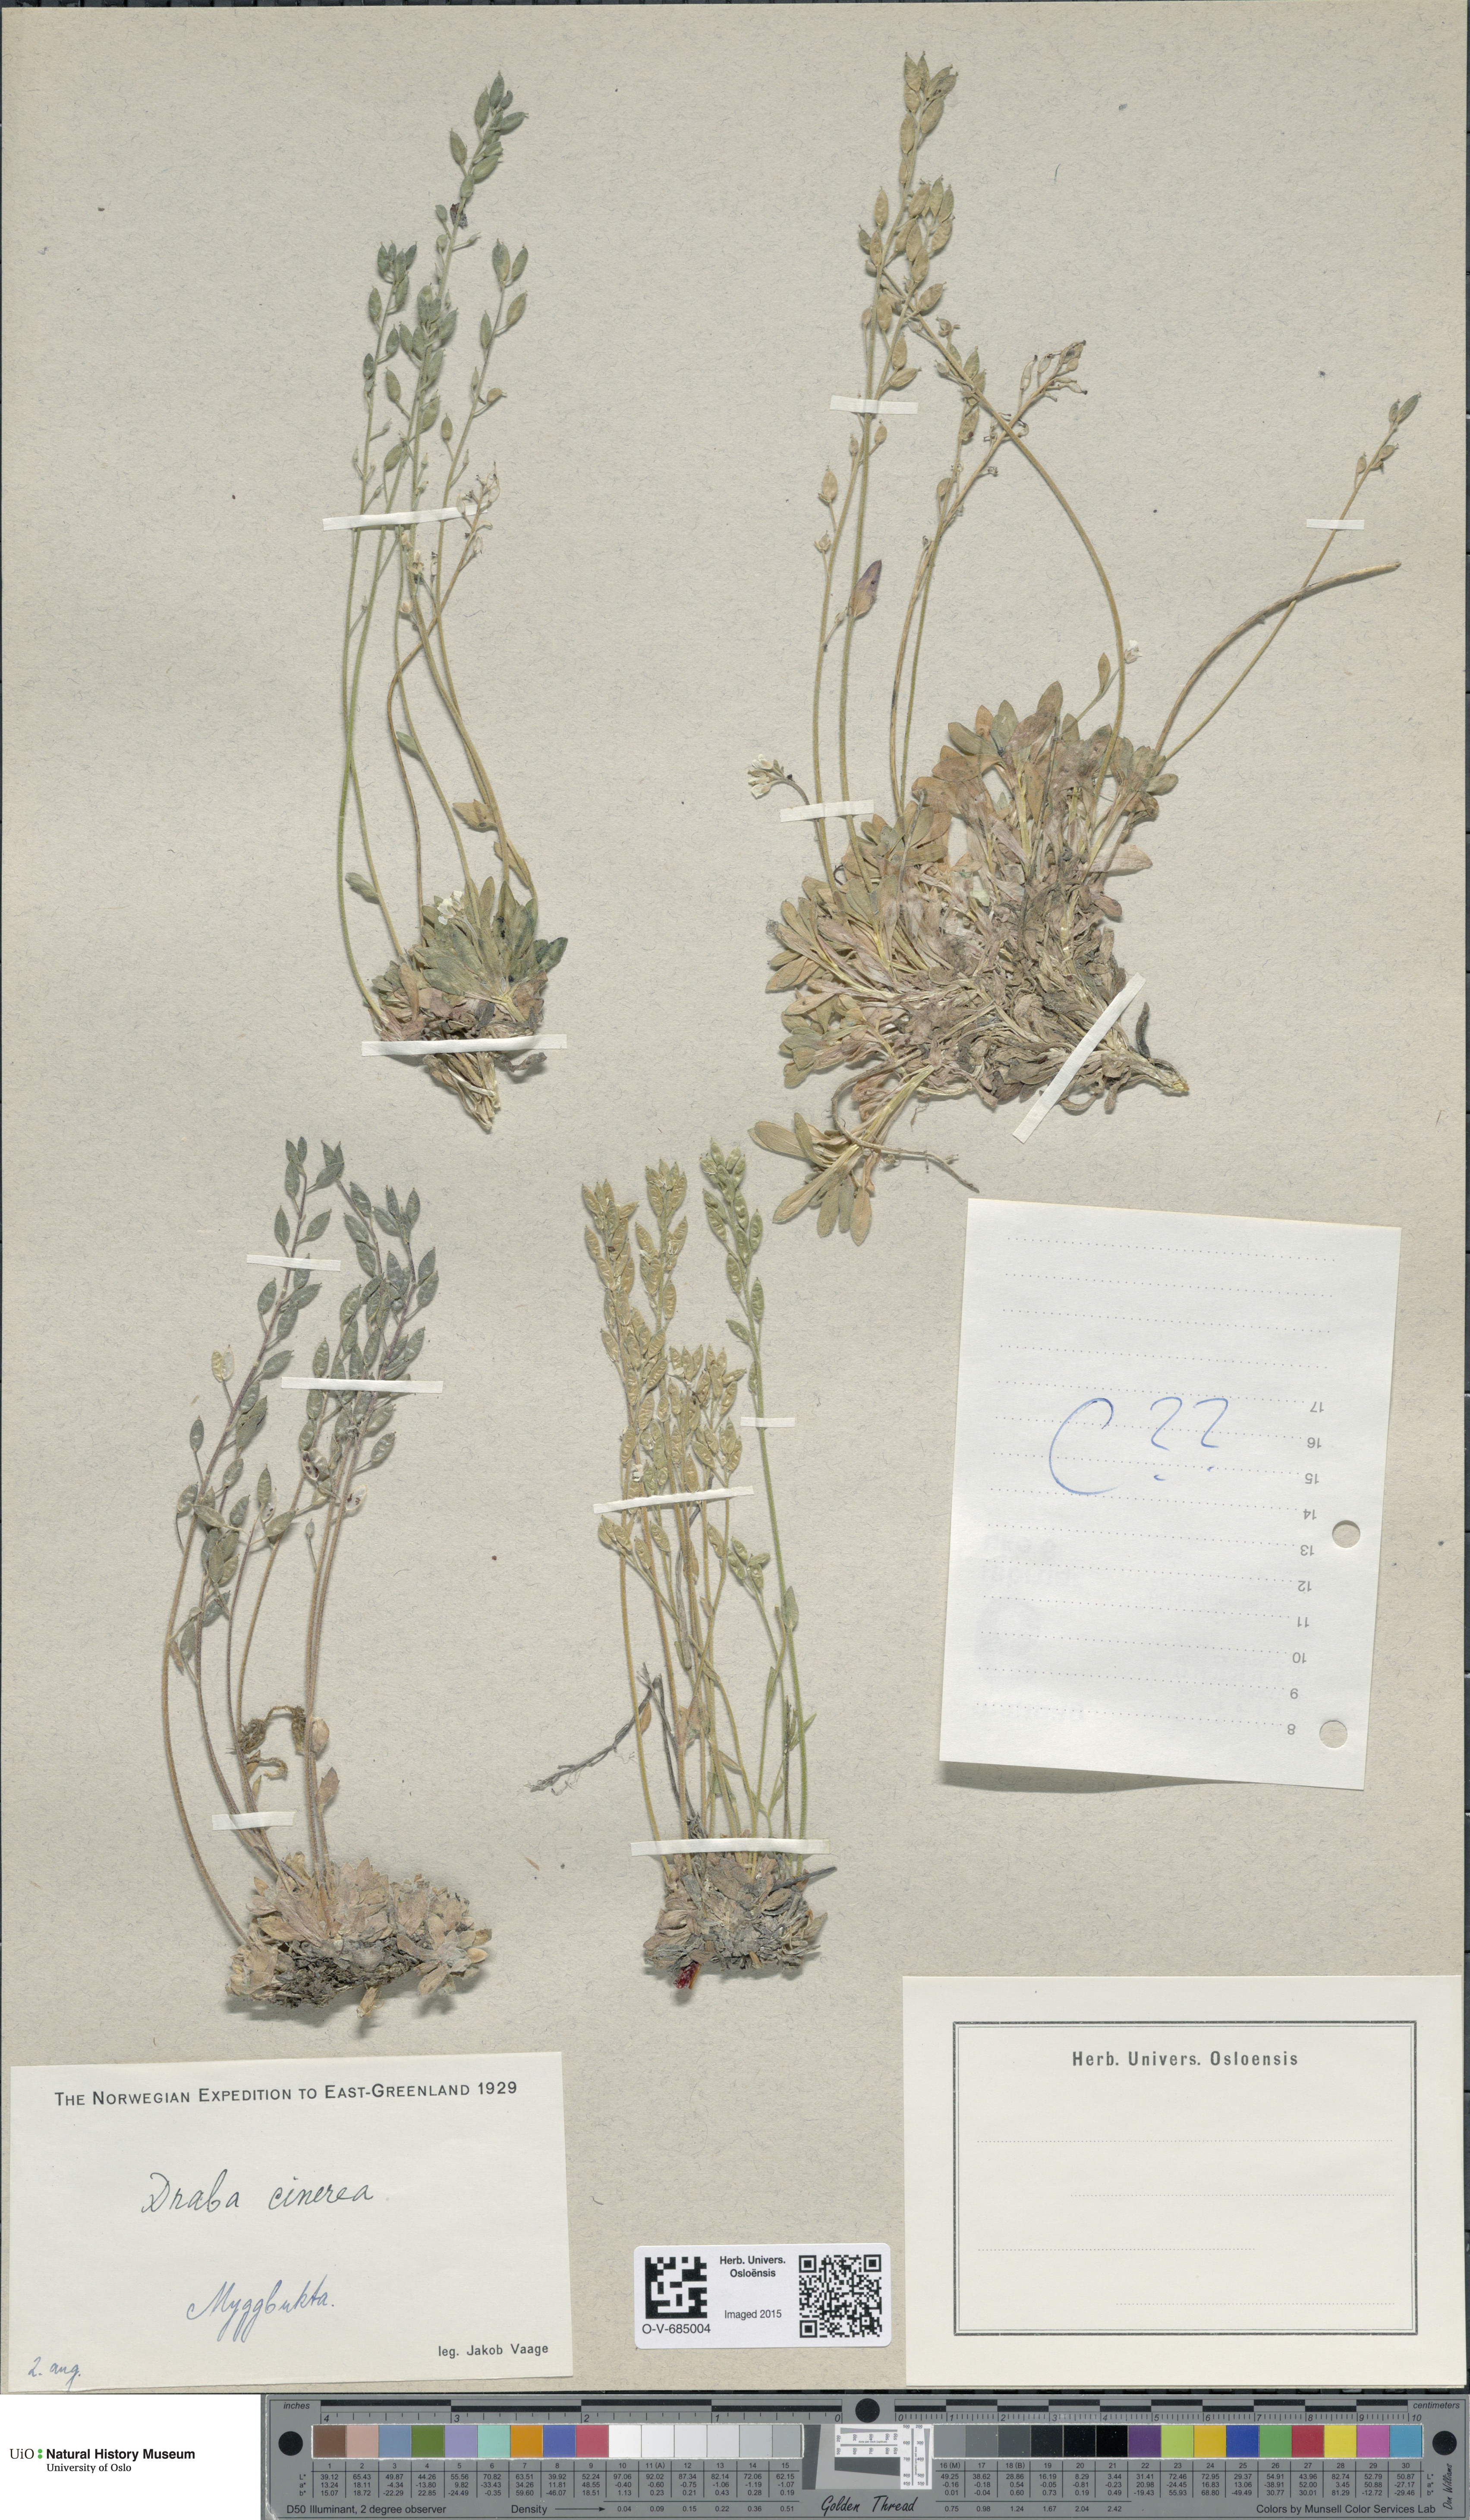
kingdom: Plantae
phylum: Tracheophyta
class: Magnoliopsida
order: Brassicales
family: Brassicaceae
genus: Draba
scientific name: Draba cinerea
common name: Ash-coloured whitlow-grass
